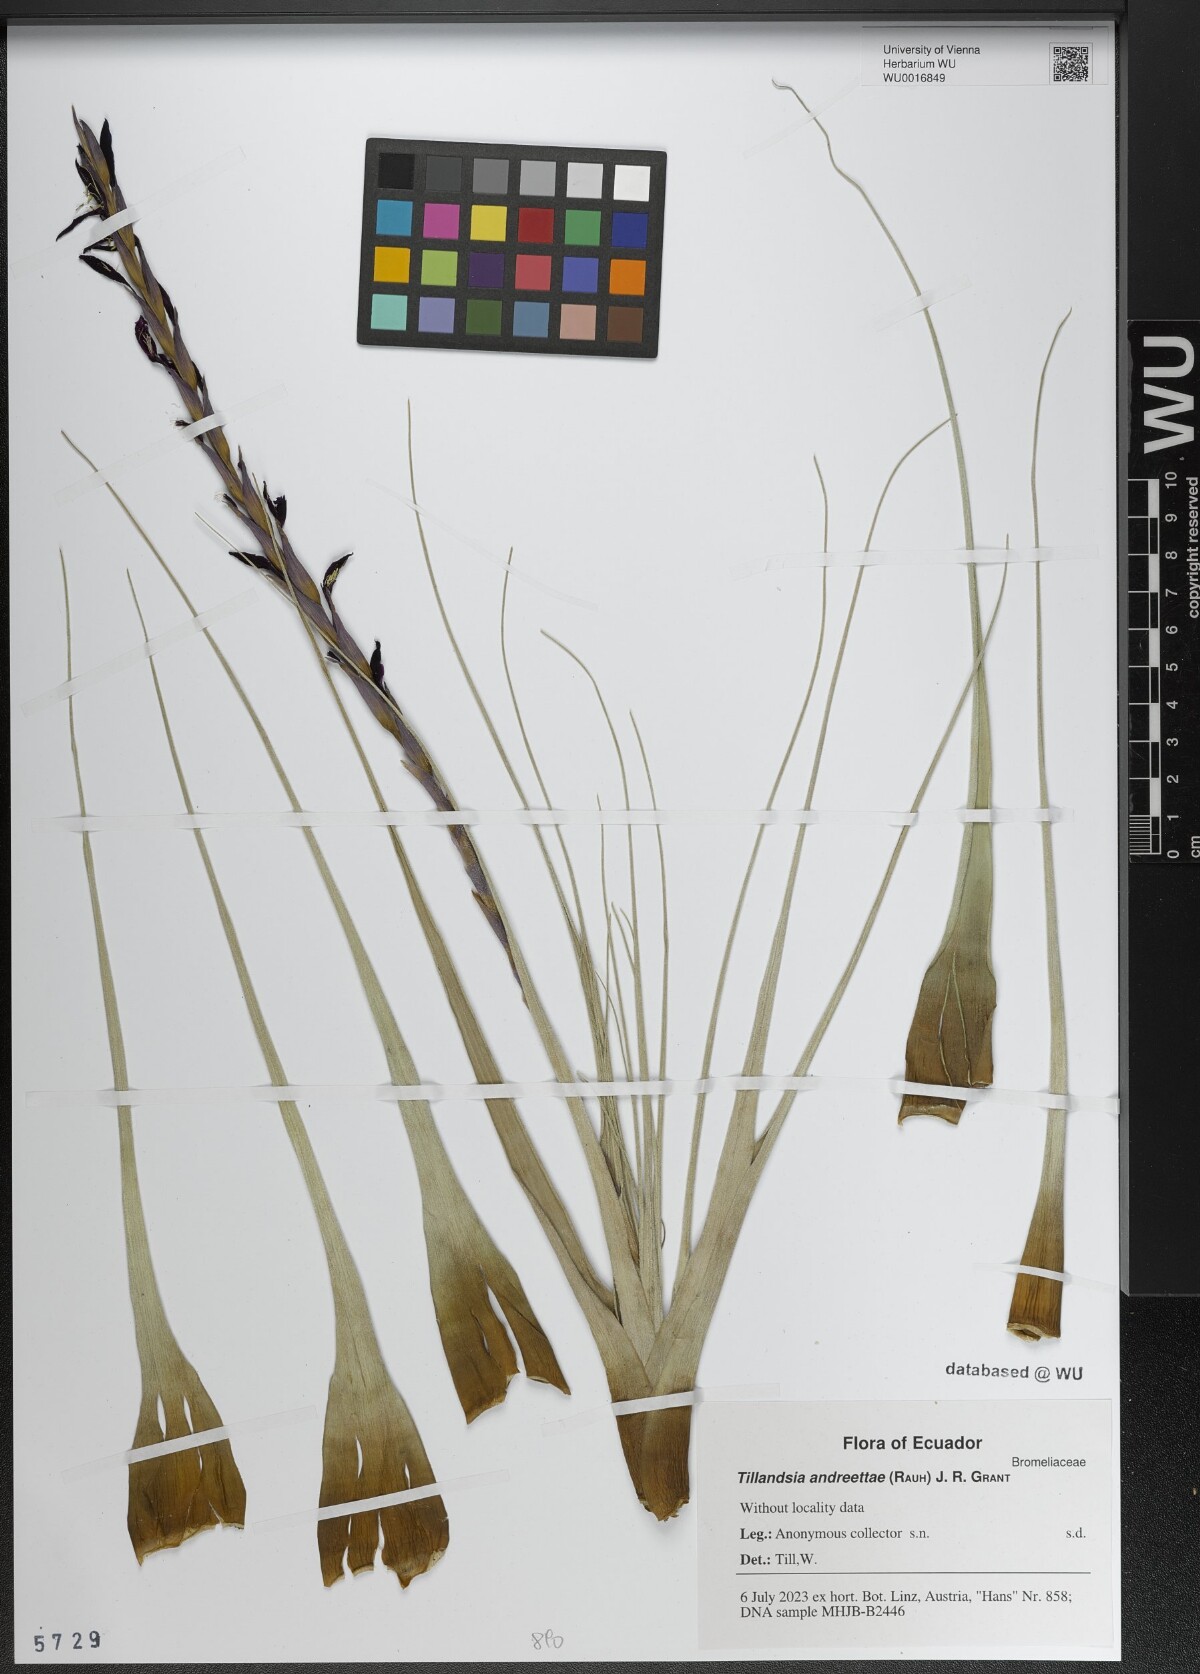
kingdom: Plantae
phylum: Tracheophyta
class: Liliopsida
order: Poales
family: Bromeliaceae
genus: Vriesea
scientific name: Vriesea andreettae
